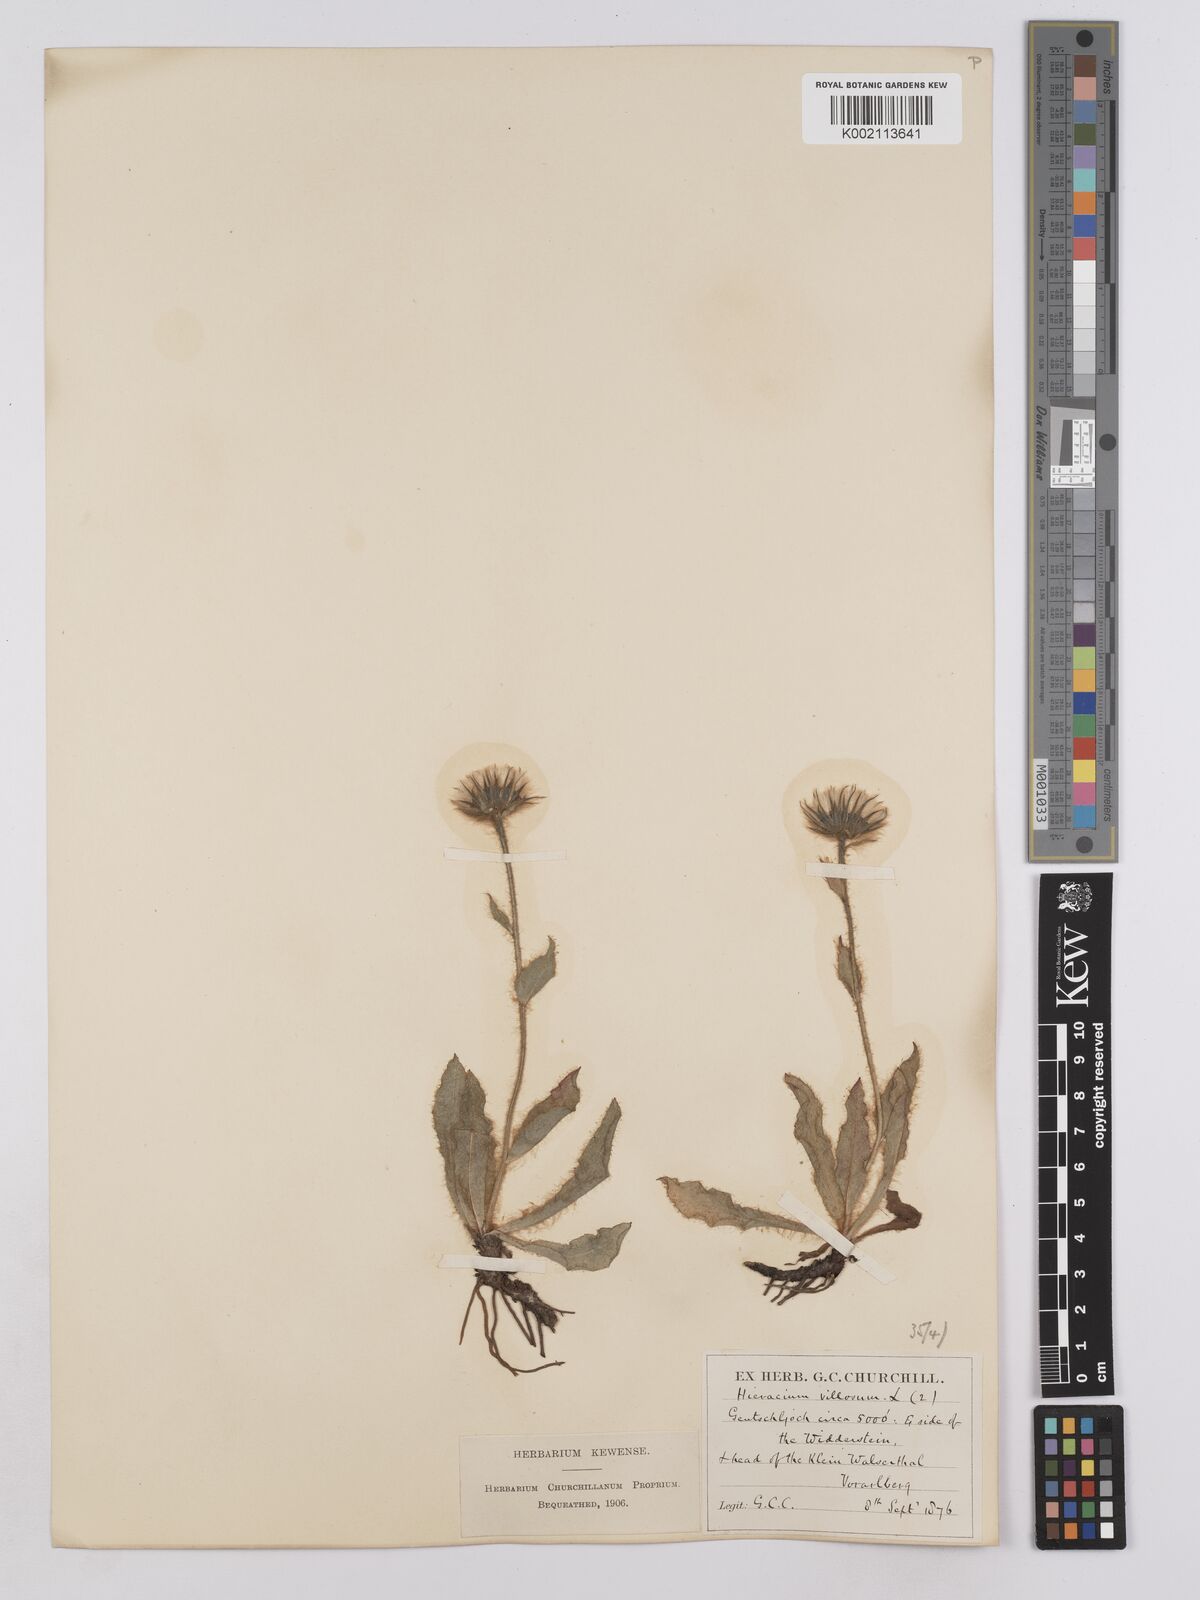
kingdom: Plantae
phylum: Tracheophyta
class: Magnoliopsida
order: Asterales
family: Asteraceae
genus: Hieracium
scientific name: Hieracium villosum
